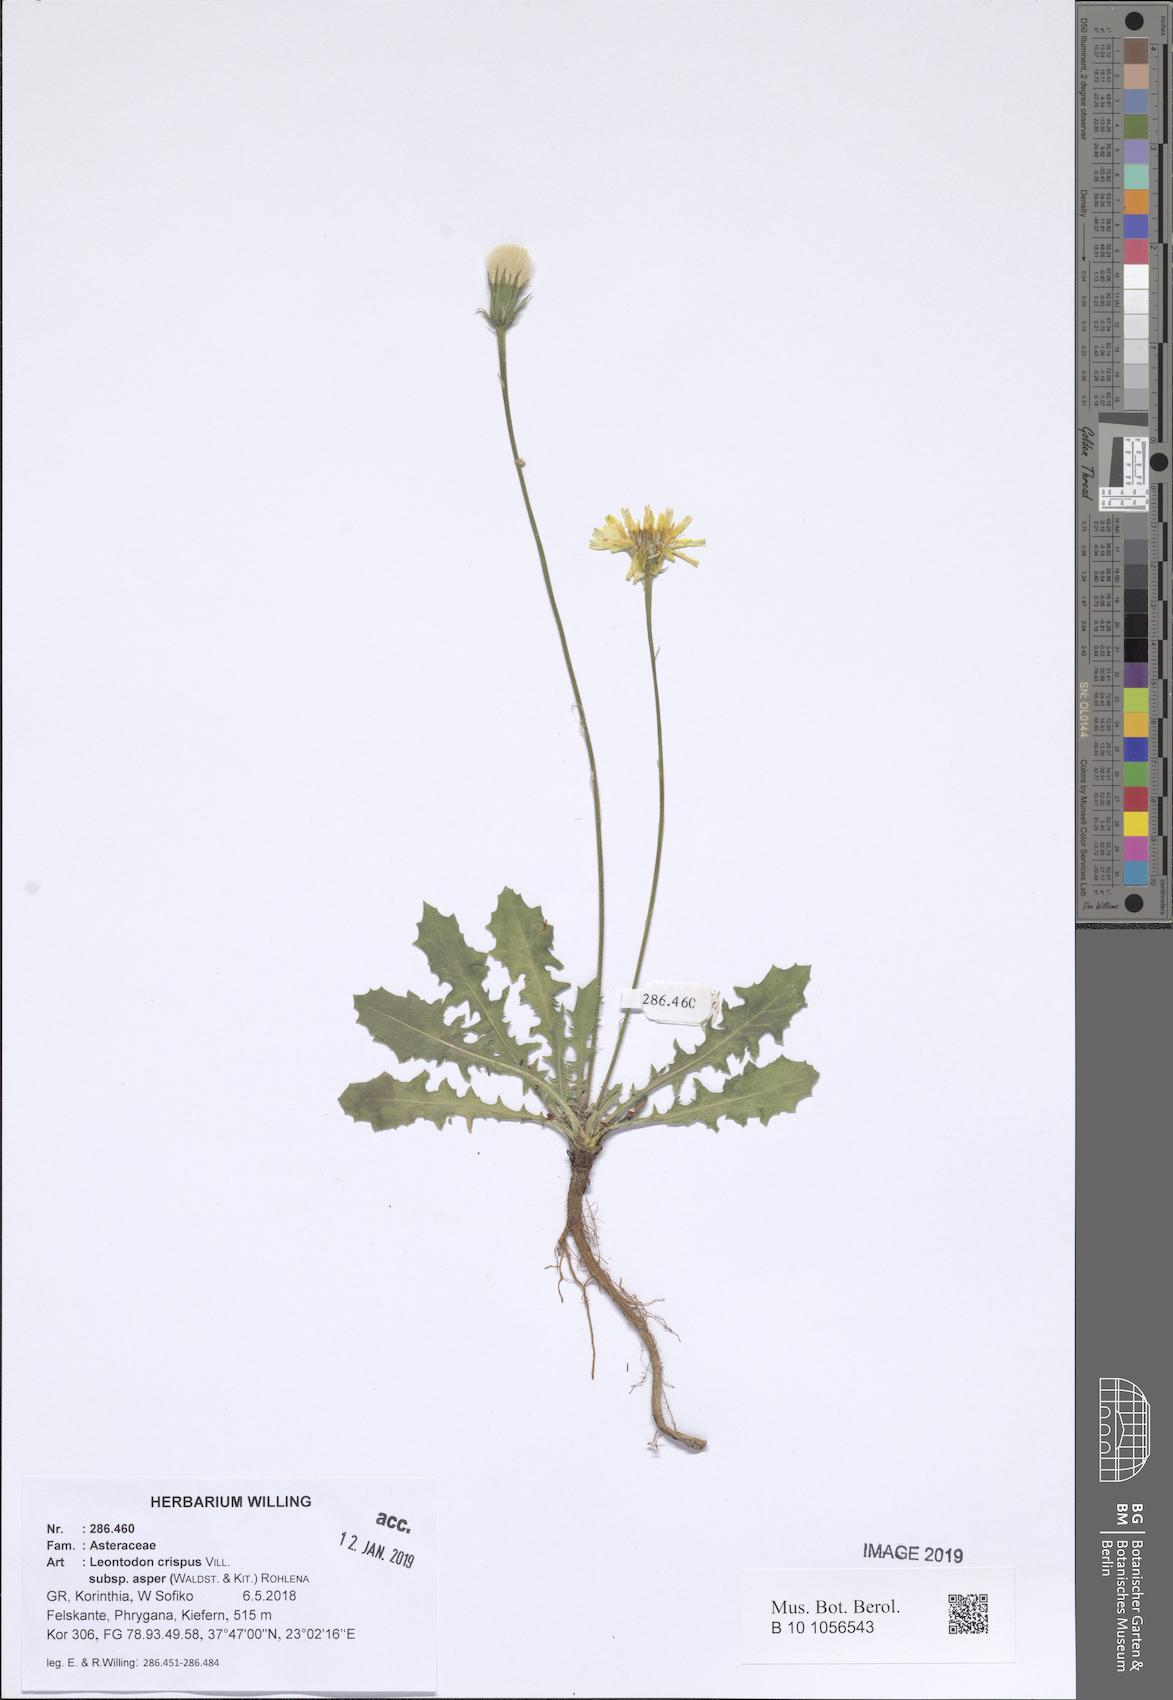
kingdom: Plantae
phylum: Tracheophyta
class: Magnoliopsida
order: Asterales
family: Asteraceae
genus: Leontodon
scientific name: Leontodon biscutellifolius
